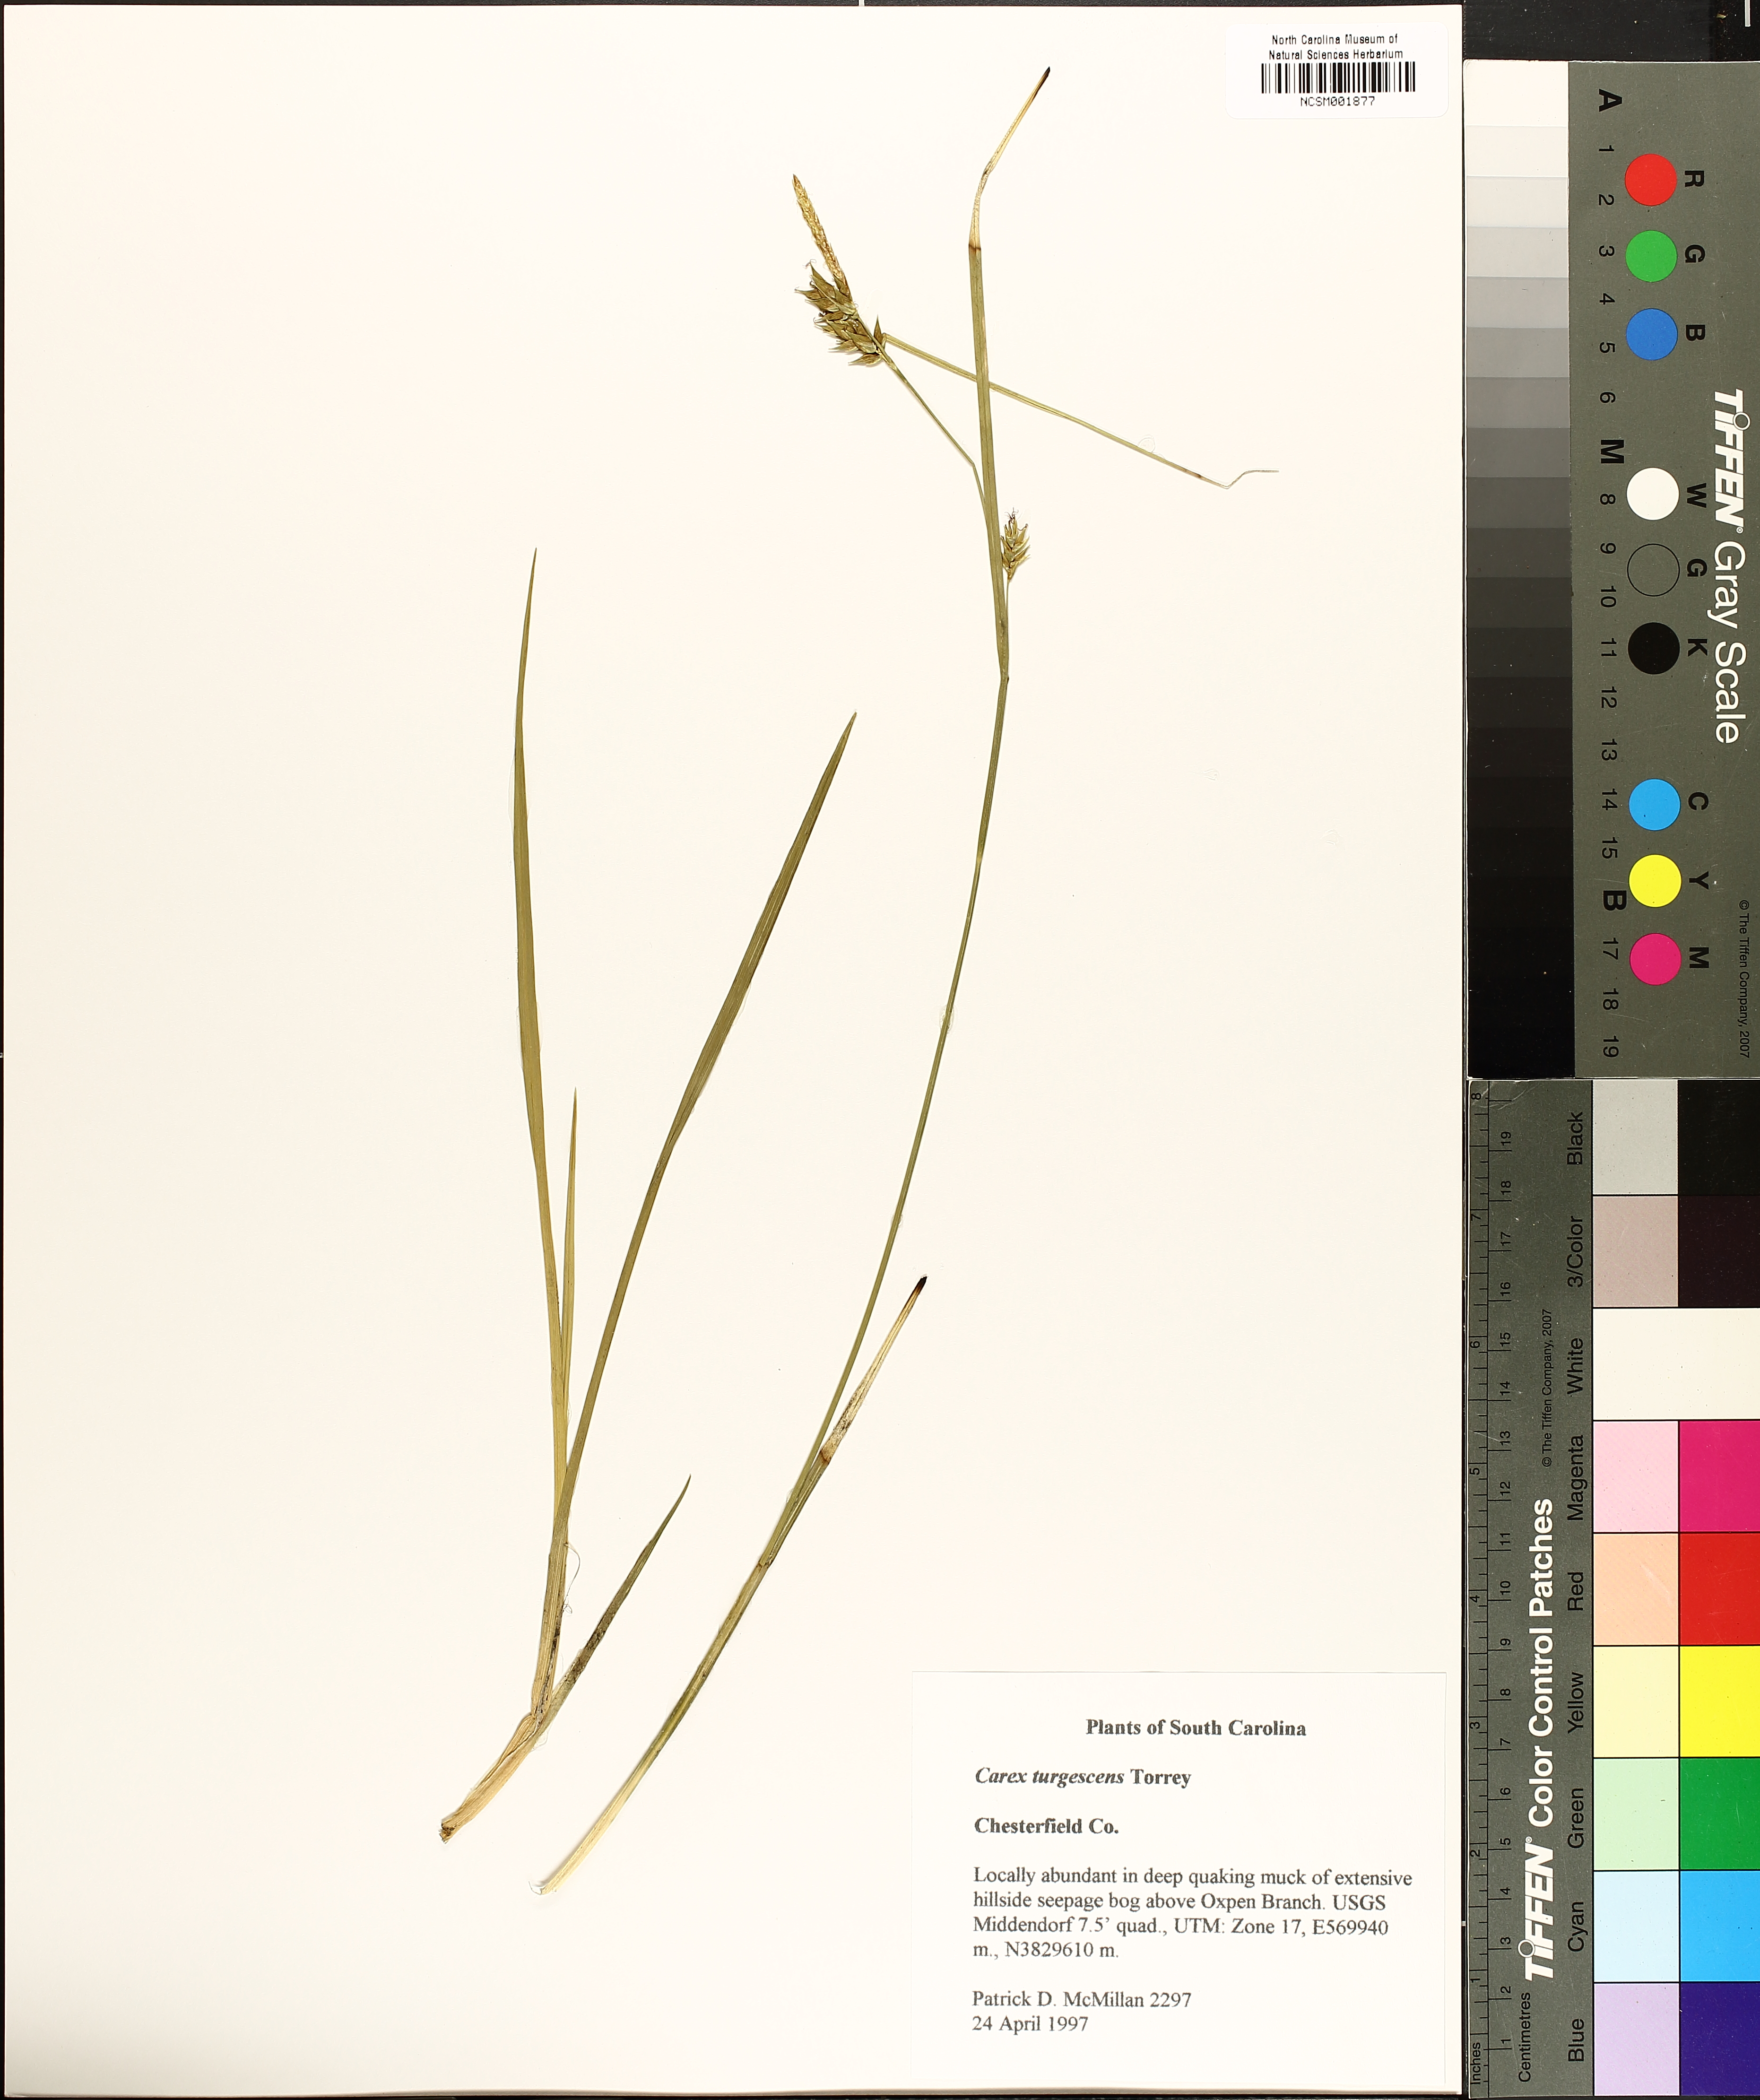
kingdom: Plantae
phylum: Tracheophyta
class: Liliopsida
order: Poales
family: Cyperaceae
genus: Carex
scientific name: Carex turgescens
